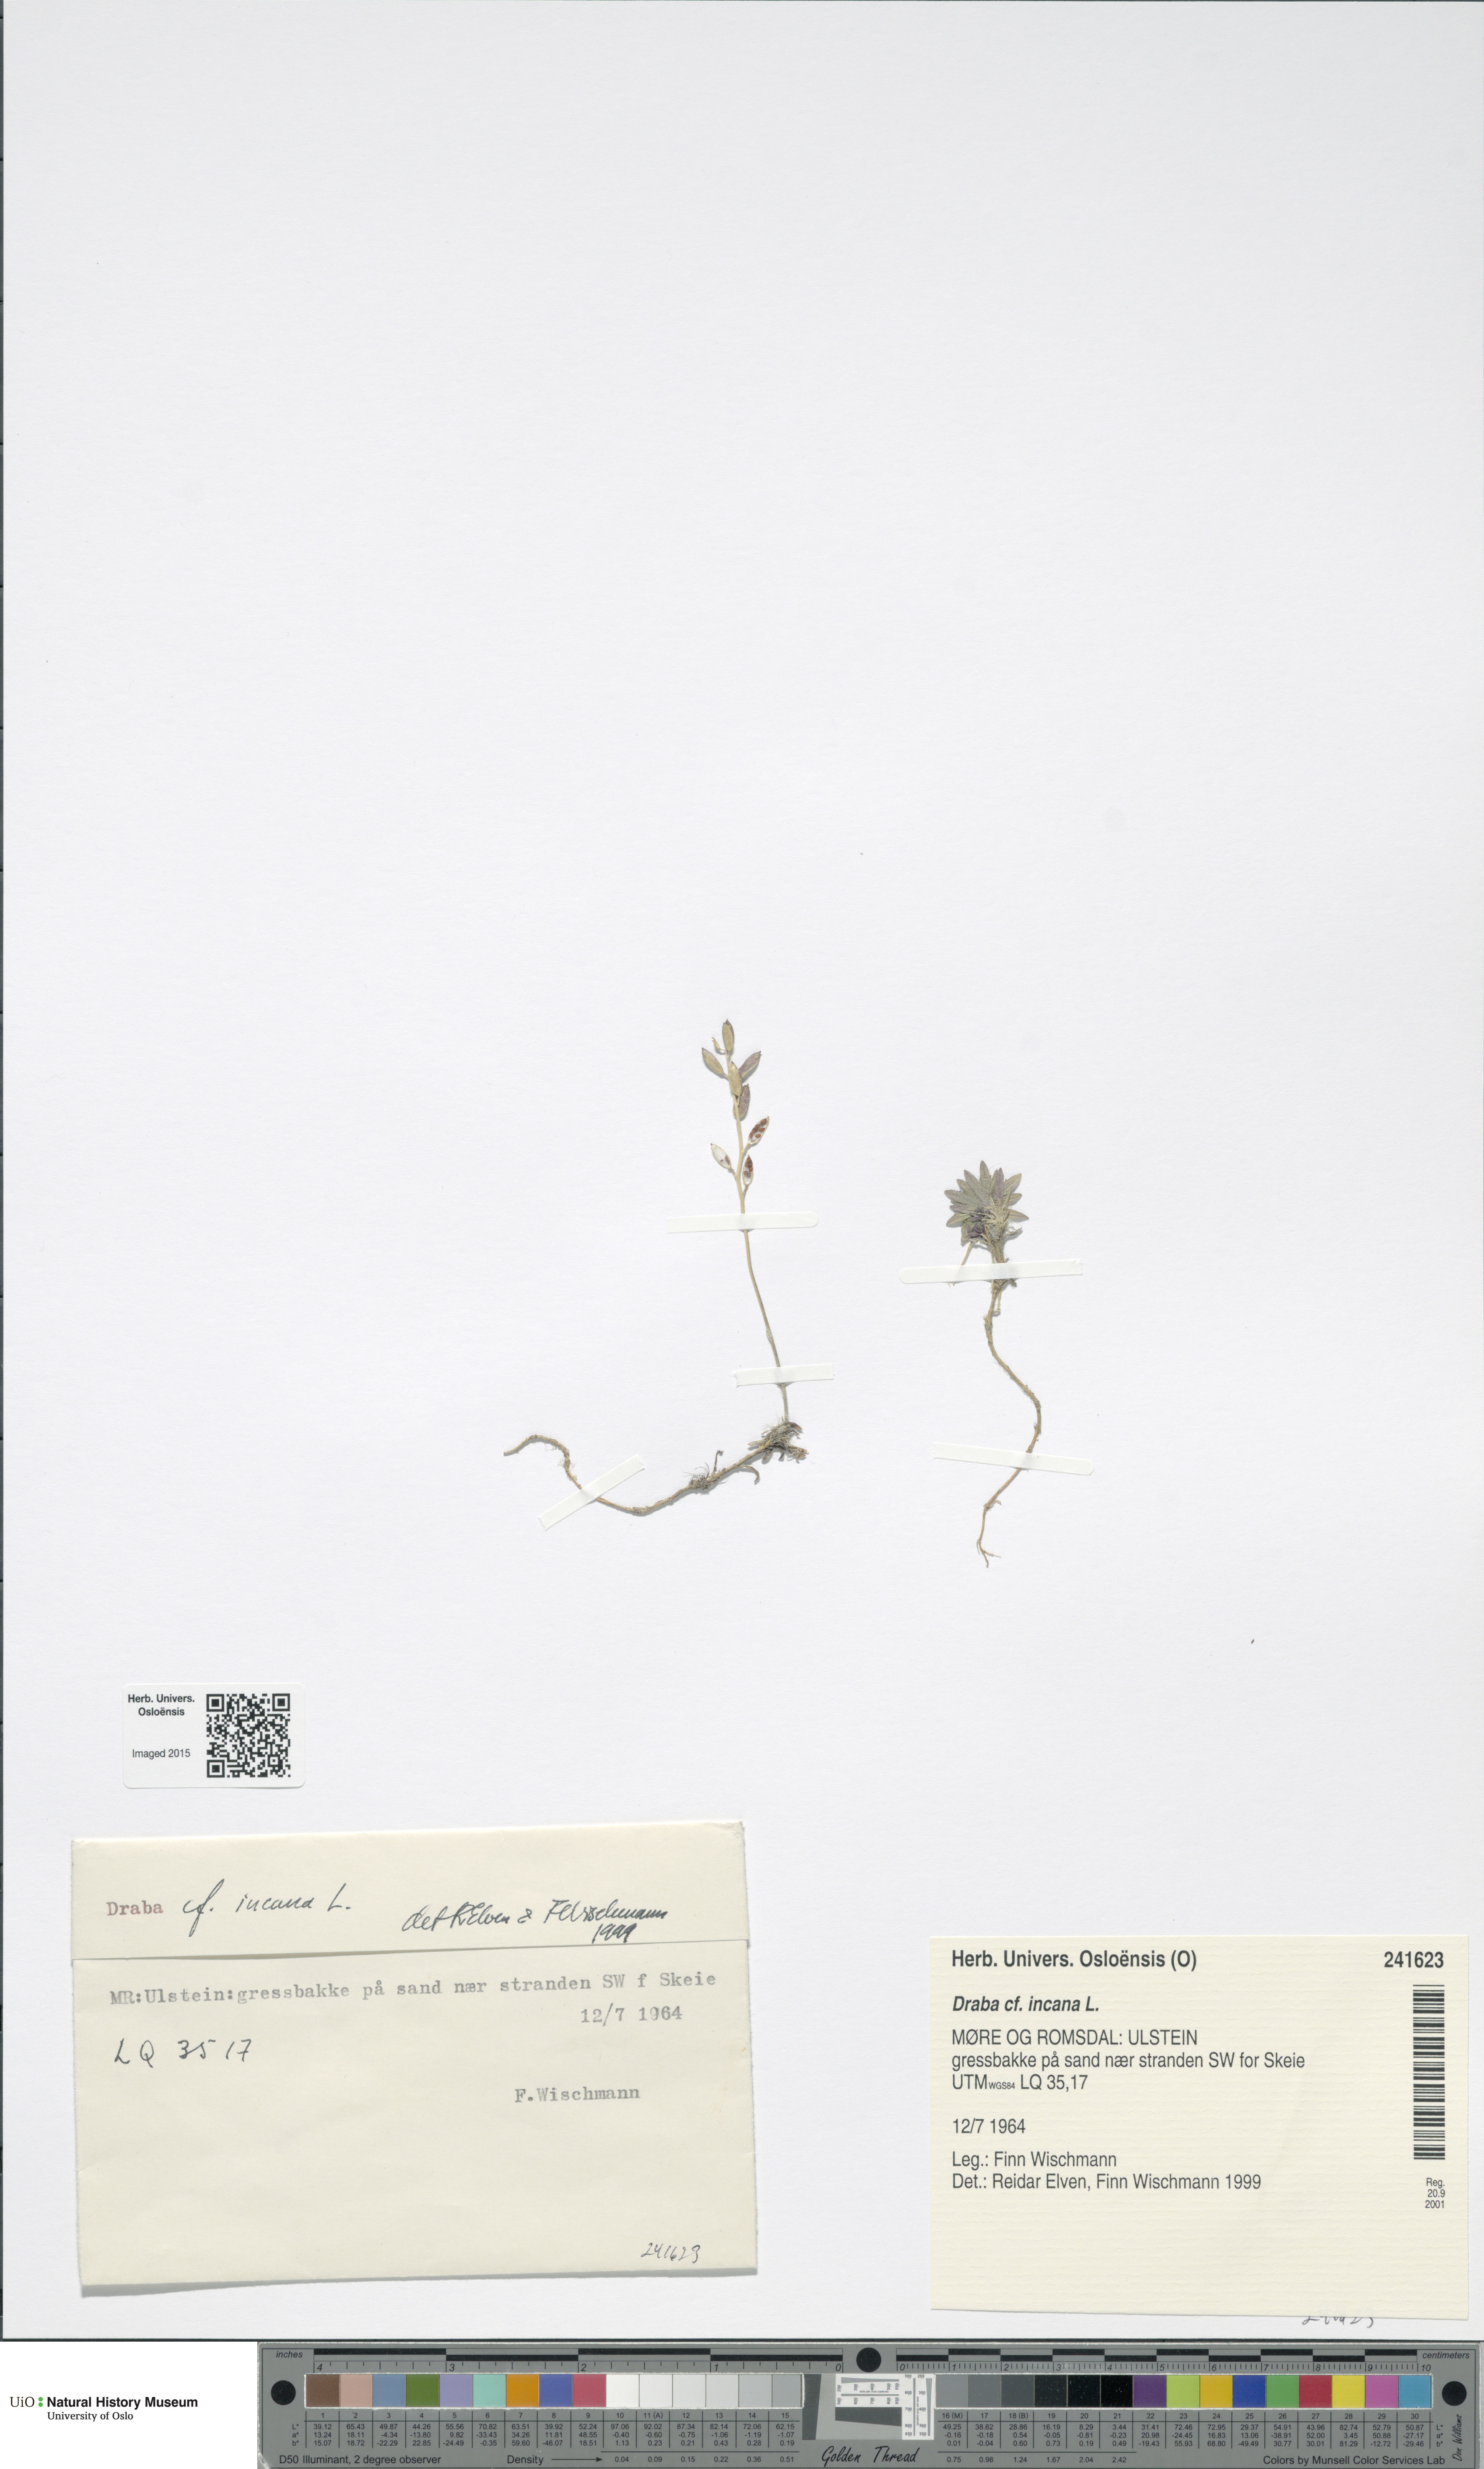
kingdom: Plantae
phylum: Tracheophyta
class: Magnoliopsida
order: Brassicales
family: Brassicaceae
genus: Draba
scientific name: Draba incana
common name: Hoary whitlow-grass
